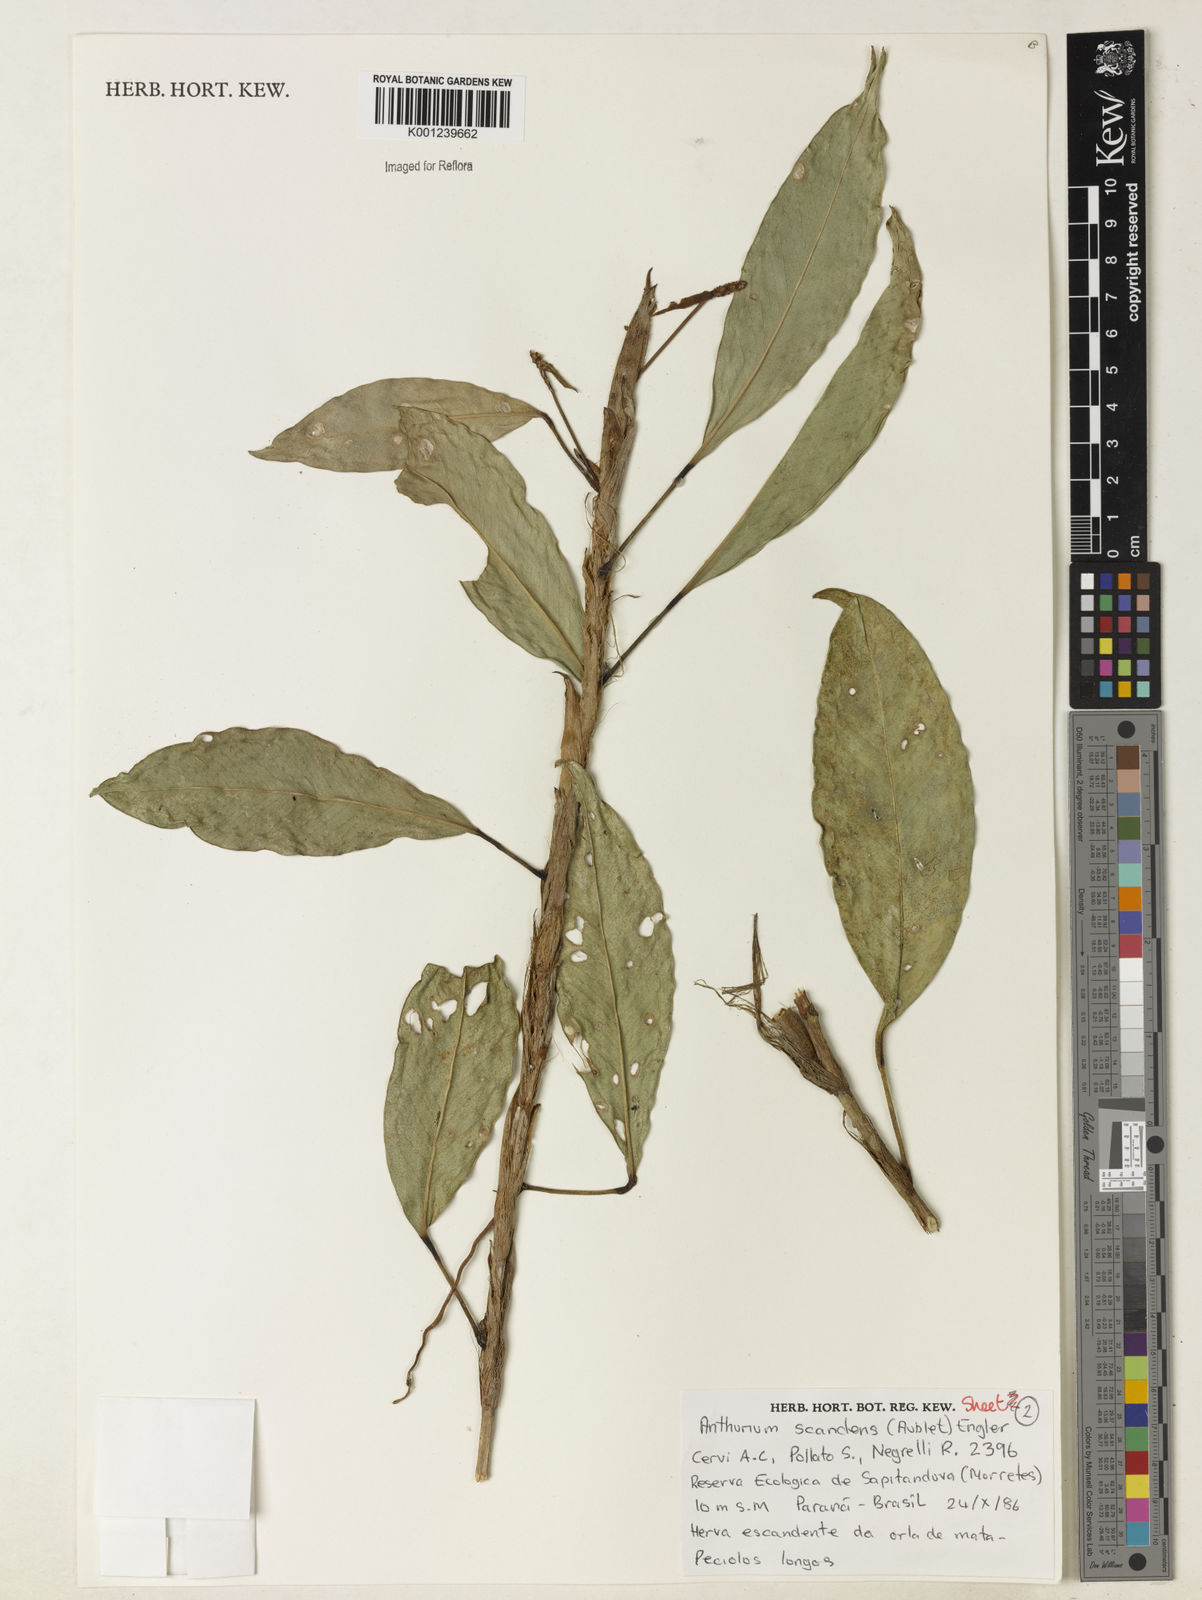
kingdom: Plantae
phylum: Tracheophyta
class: Liliopsida
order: Alismatales
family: Araceae
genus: Anthurium
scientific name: Anthurium scandens
